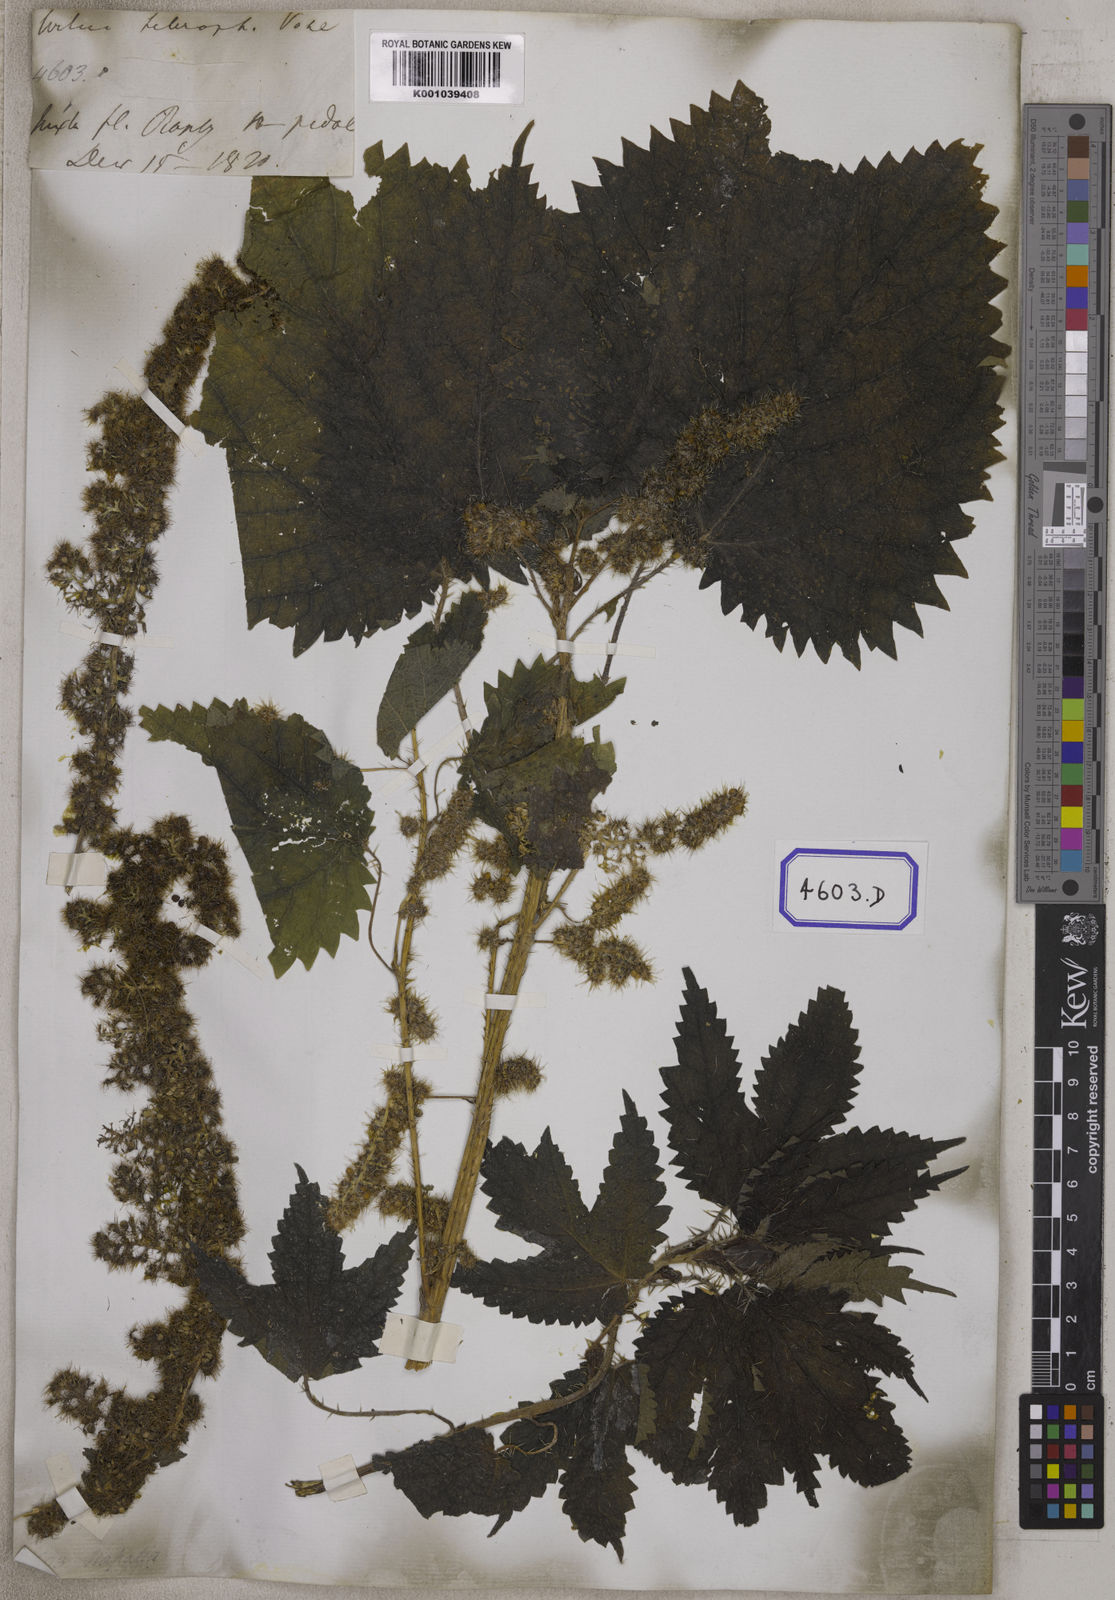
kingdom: Plantae
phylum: Tracheophyta
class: Magnoliopsida
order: Rosales
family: Urticaceae
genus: Girardinia
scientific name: Girardinia diversifolia
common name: Himalayan-nettle
